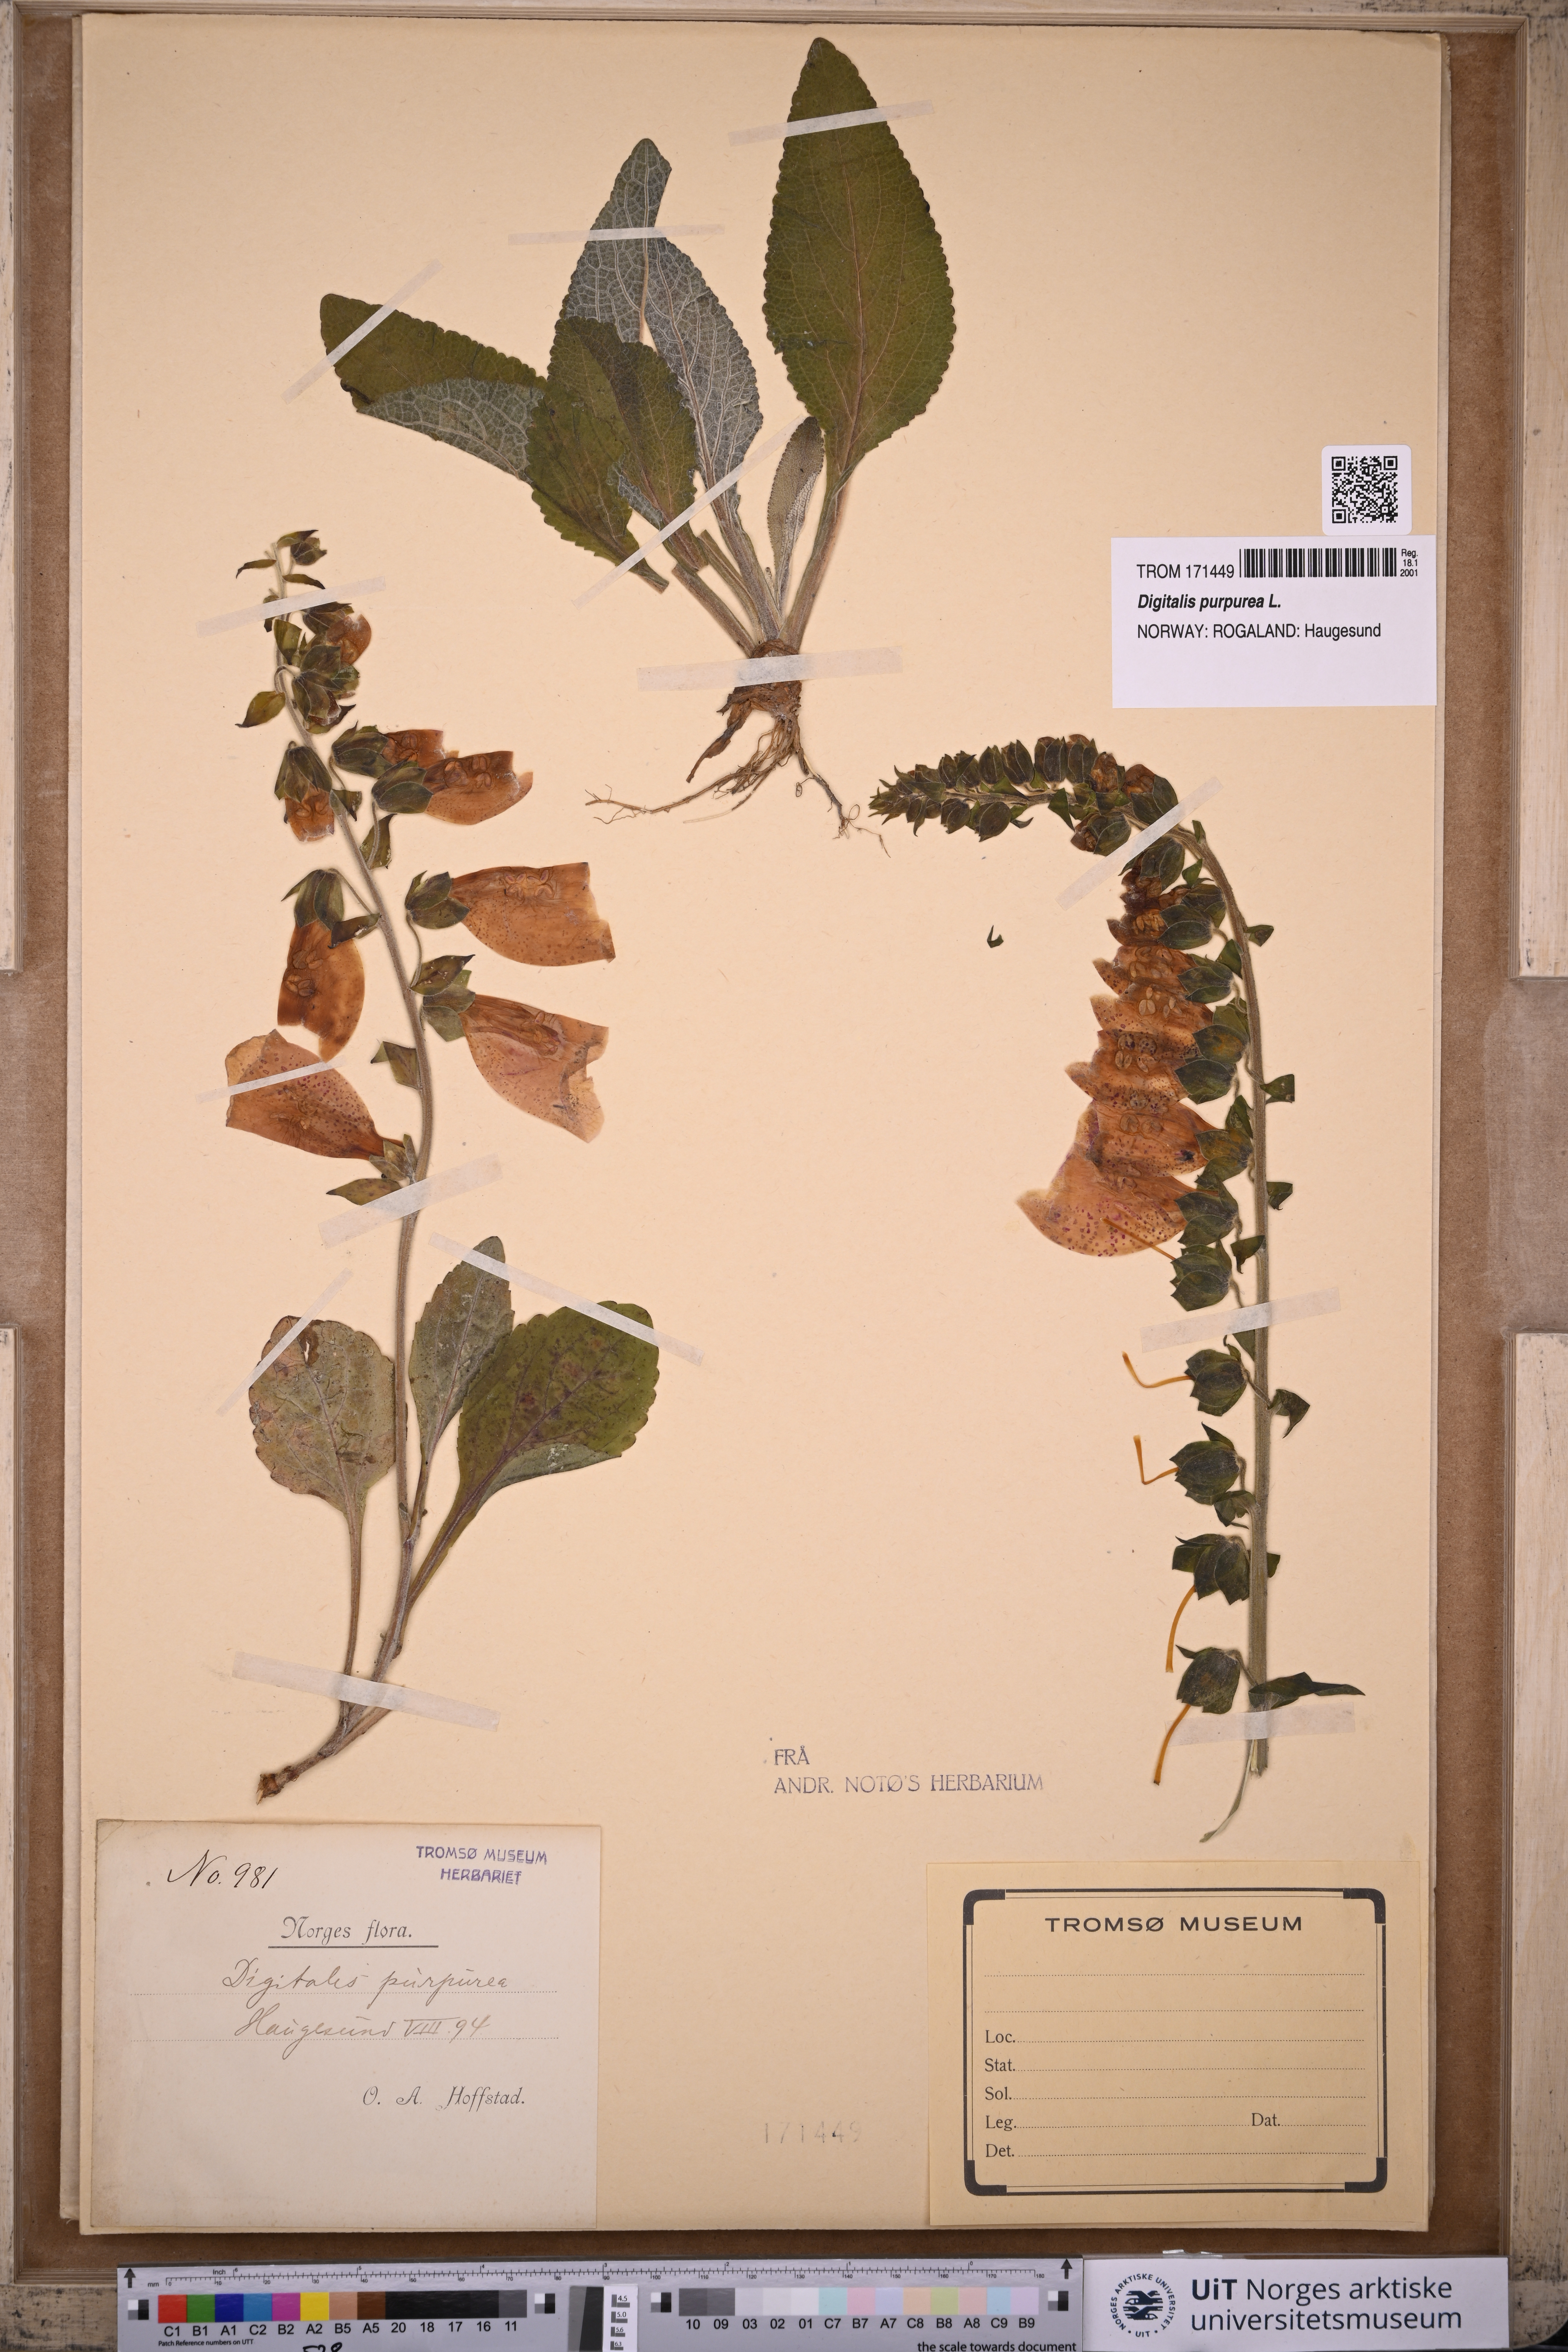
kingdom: Plantae
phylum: Tracheophyta
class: Magnoliopsida
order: Lamiales
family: Plantaginaceae
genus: Digitalis
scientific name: Digitalis purpurea
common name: Foxglove
